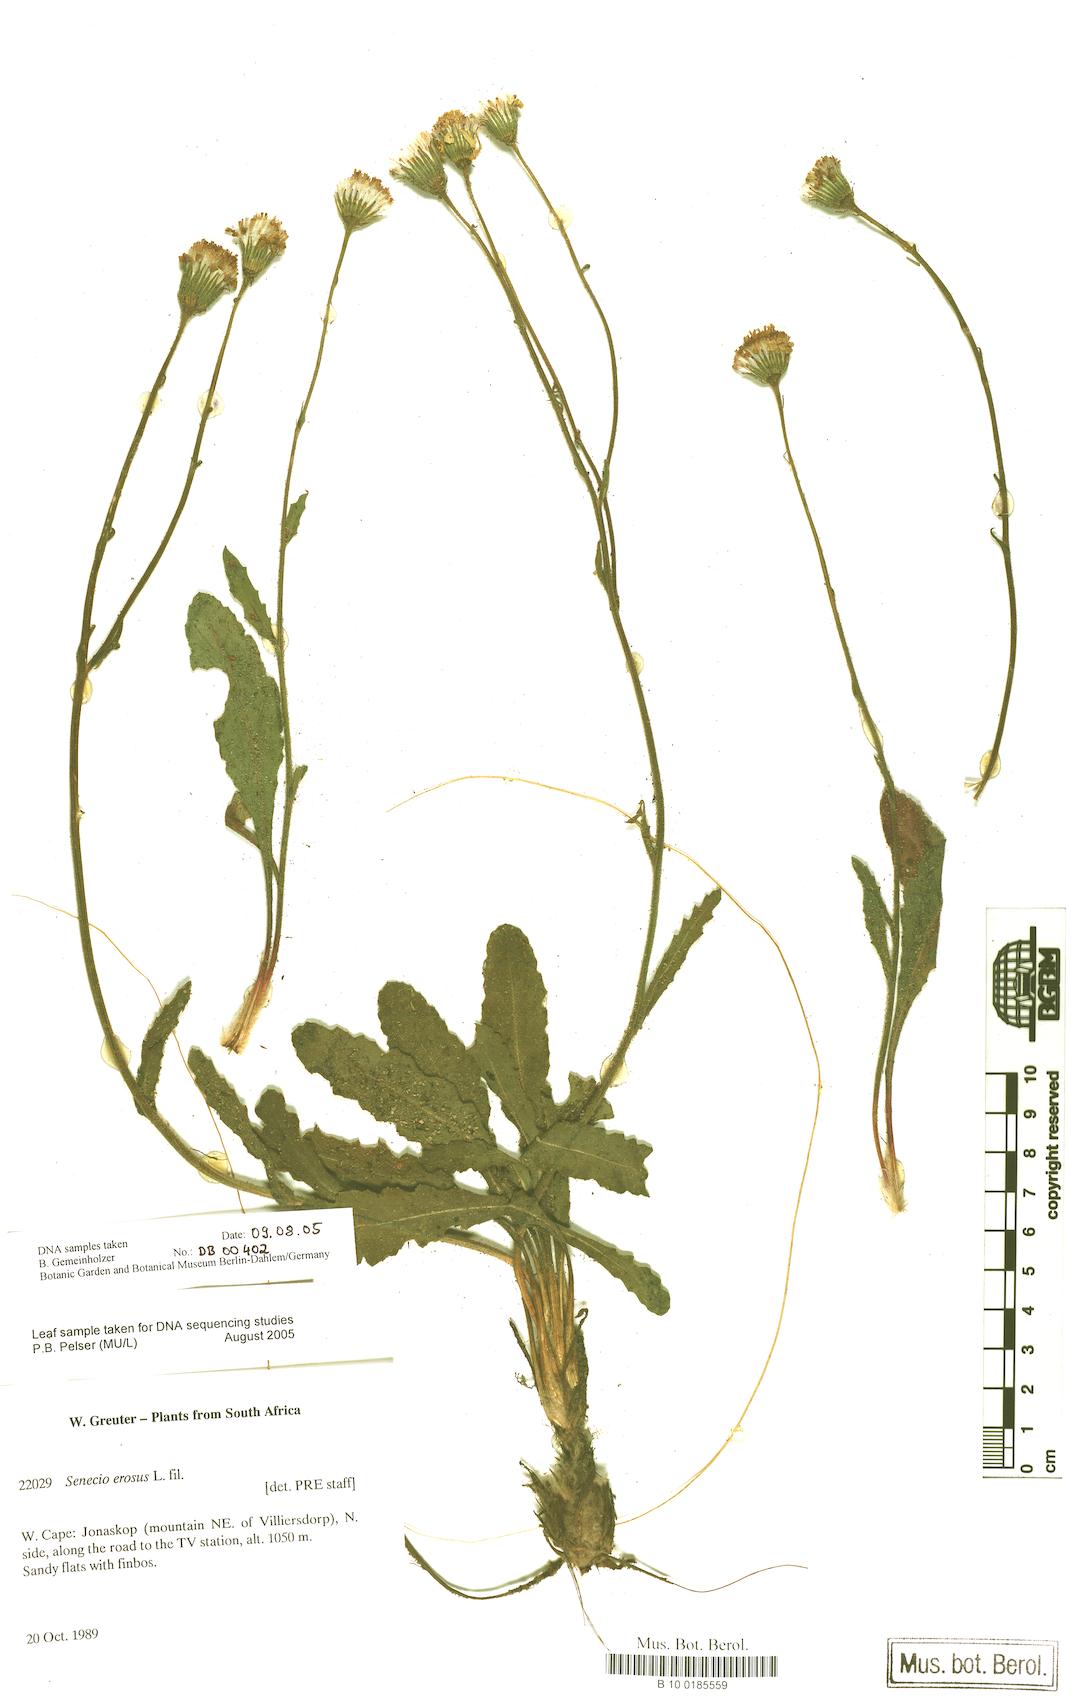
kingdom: Plantae
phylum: Tracheophyta
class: Magnoliopsida
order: Asterales
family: Asteraceae
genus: Senecio
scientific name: Senecio erosus
